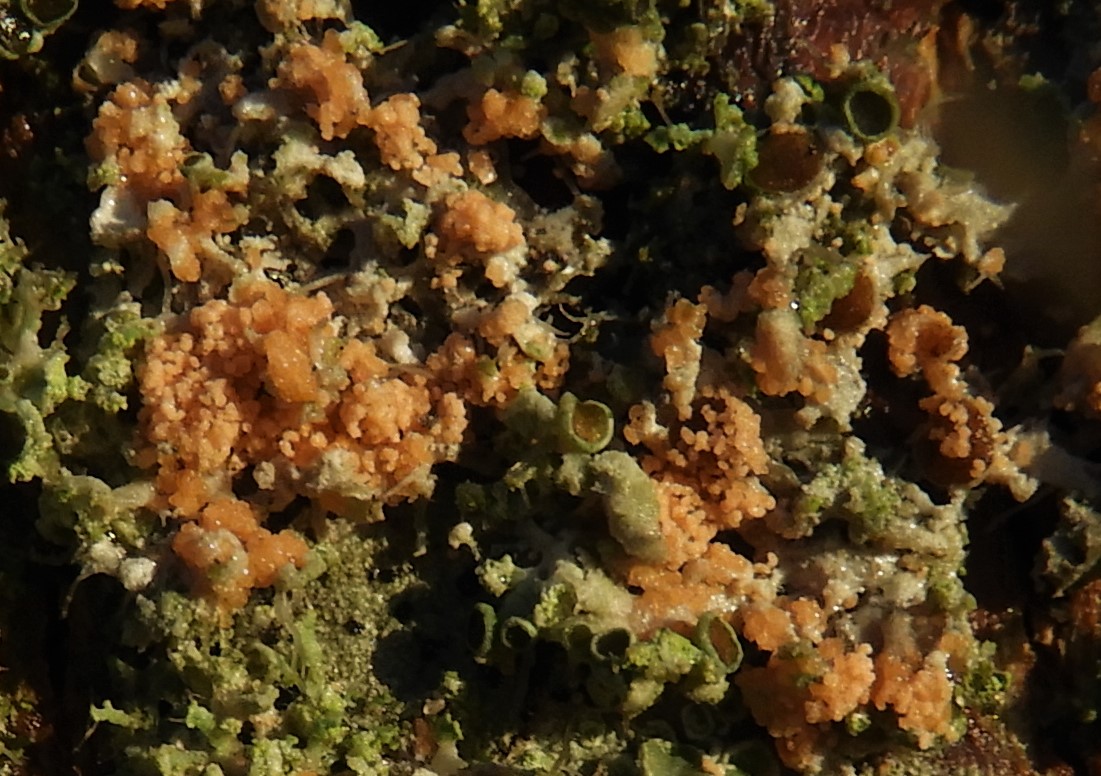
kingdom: Fungi
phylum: Basidiomycota
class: Agaricomycetes
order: Corticiales
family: Corticiaceae
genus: Erythricium
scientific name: Erythricium aurantiacum
